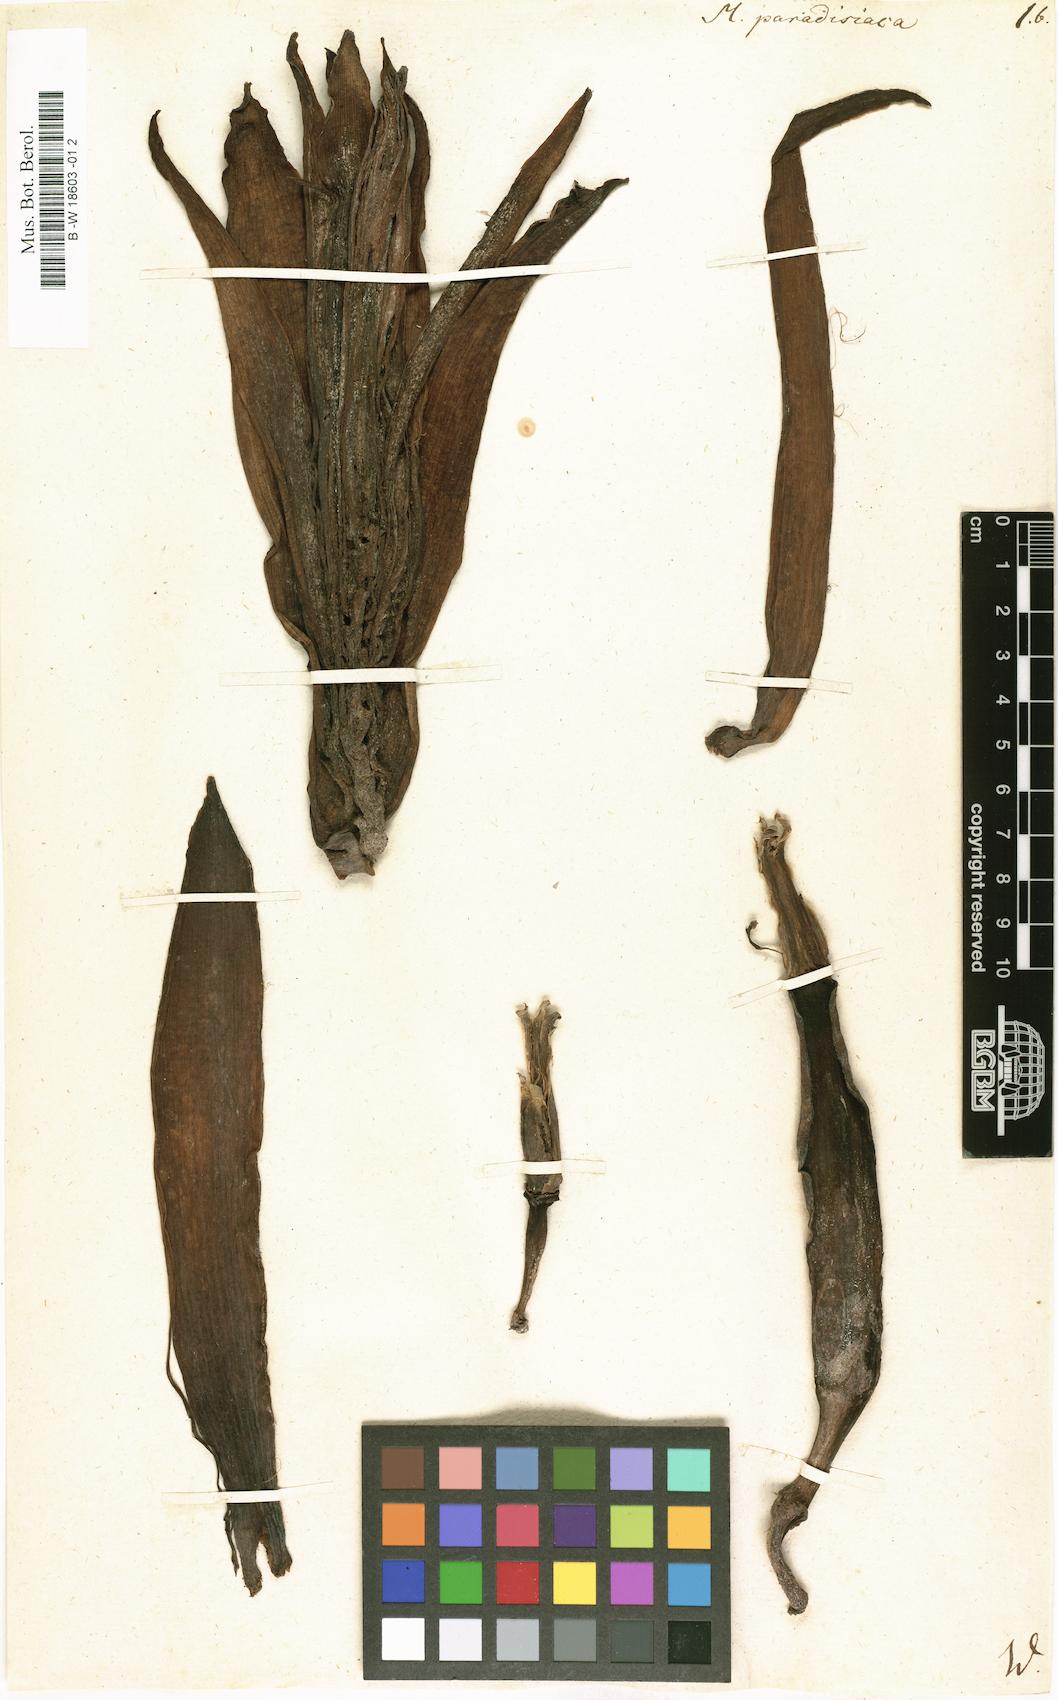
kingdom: Plantae
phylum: Tracheophyta
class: Liliopsida
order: Zingiberales
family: Musaceae
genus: Musa
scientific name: Musa paradisiaca
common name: French plantain
